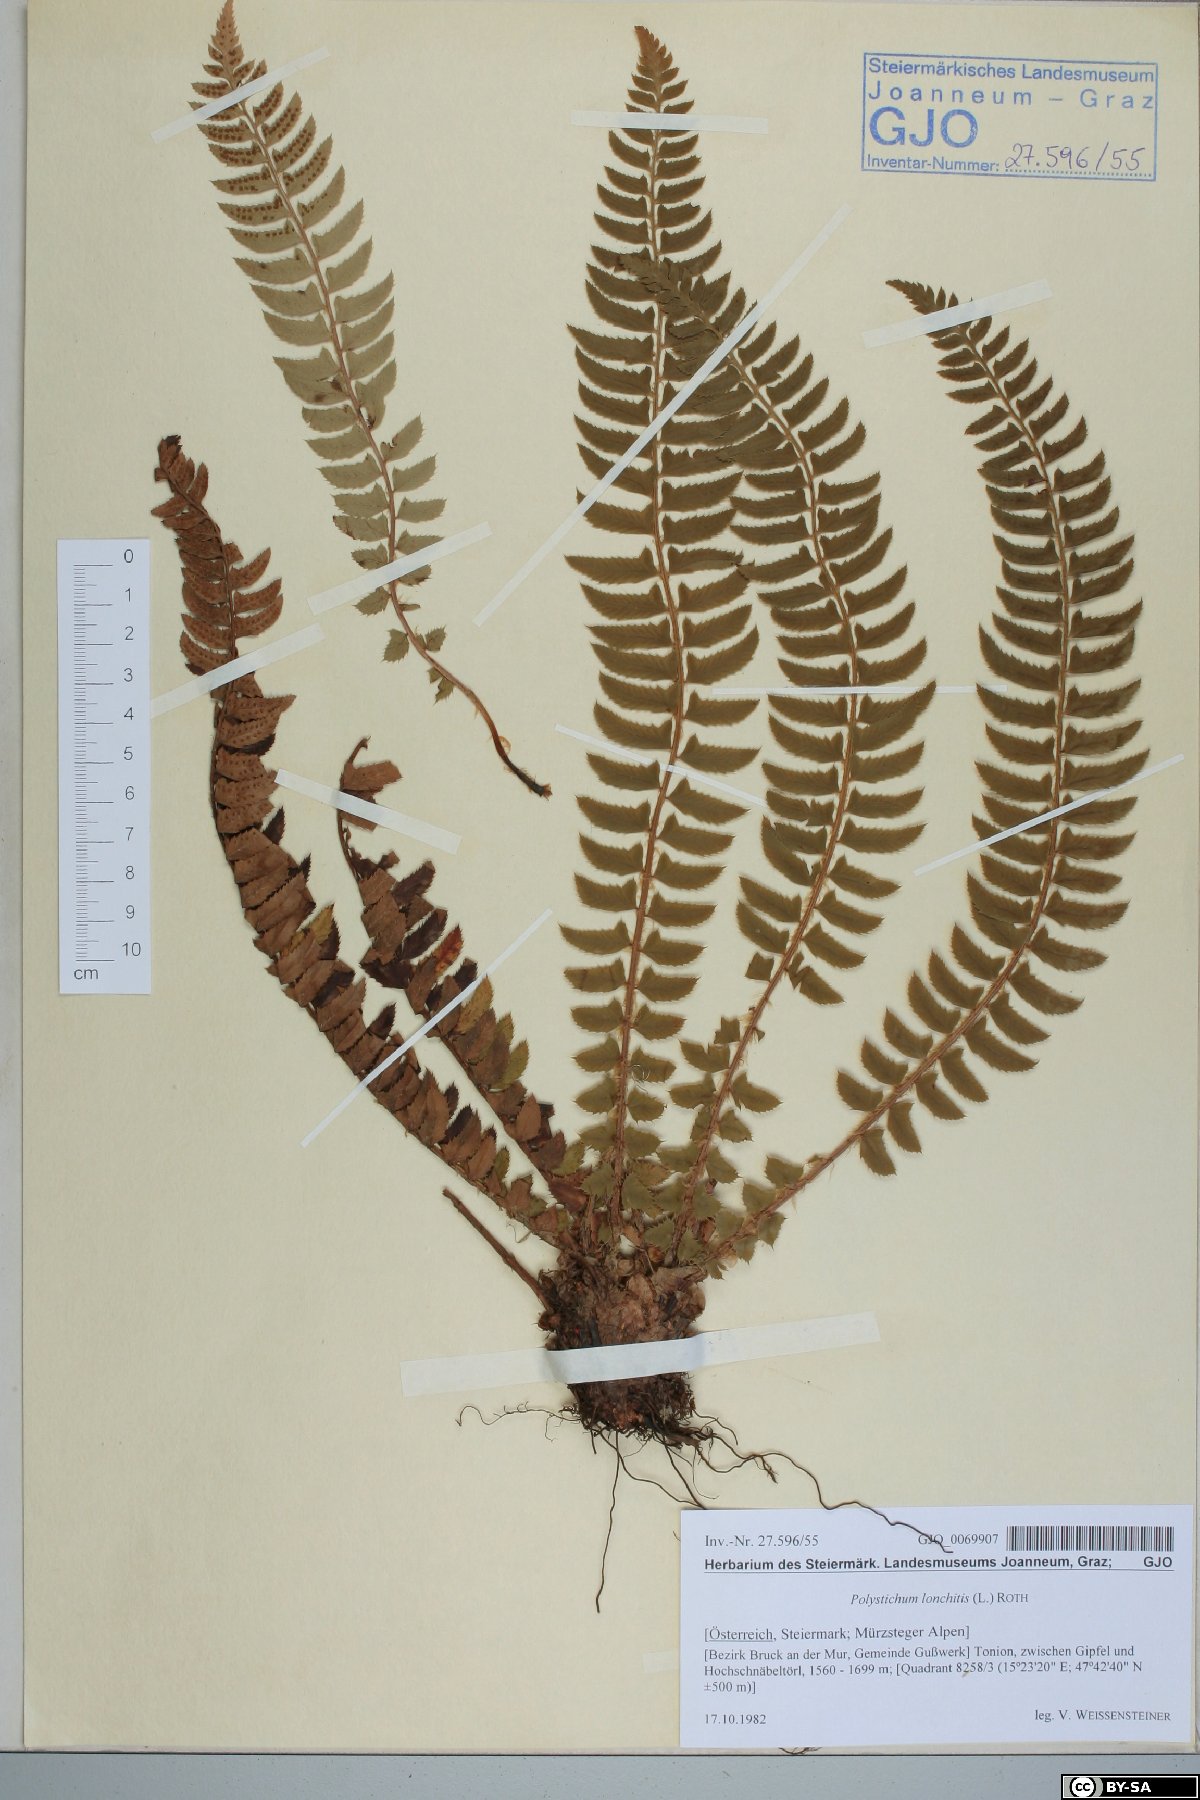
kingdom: Plantae
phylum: Tracheophyta
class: Polypodiopsida
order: Polypodiales
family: Dryopteridaceae
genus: Polystichum
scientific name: Polystichum lonchitis
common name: Holly fern
